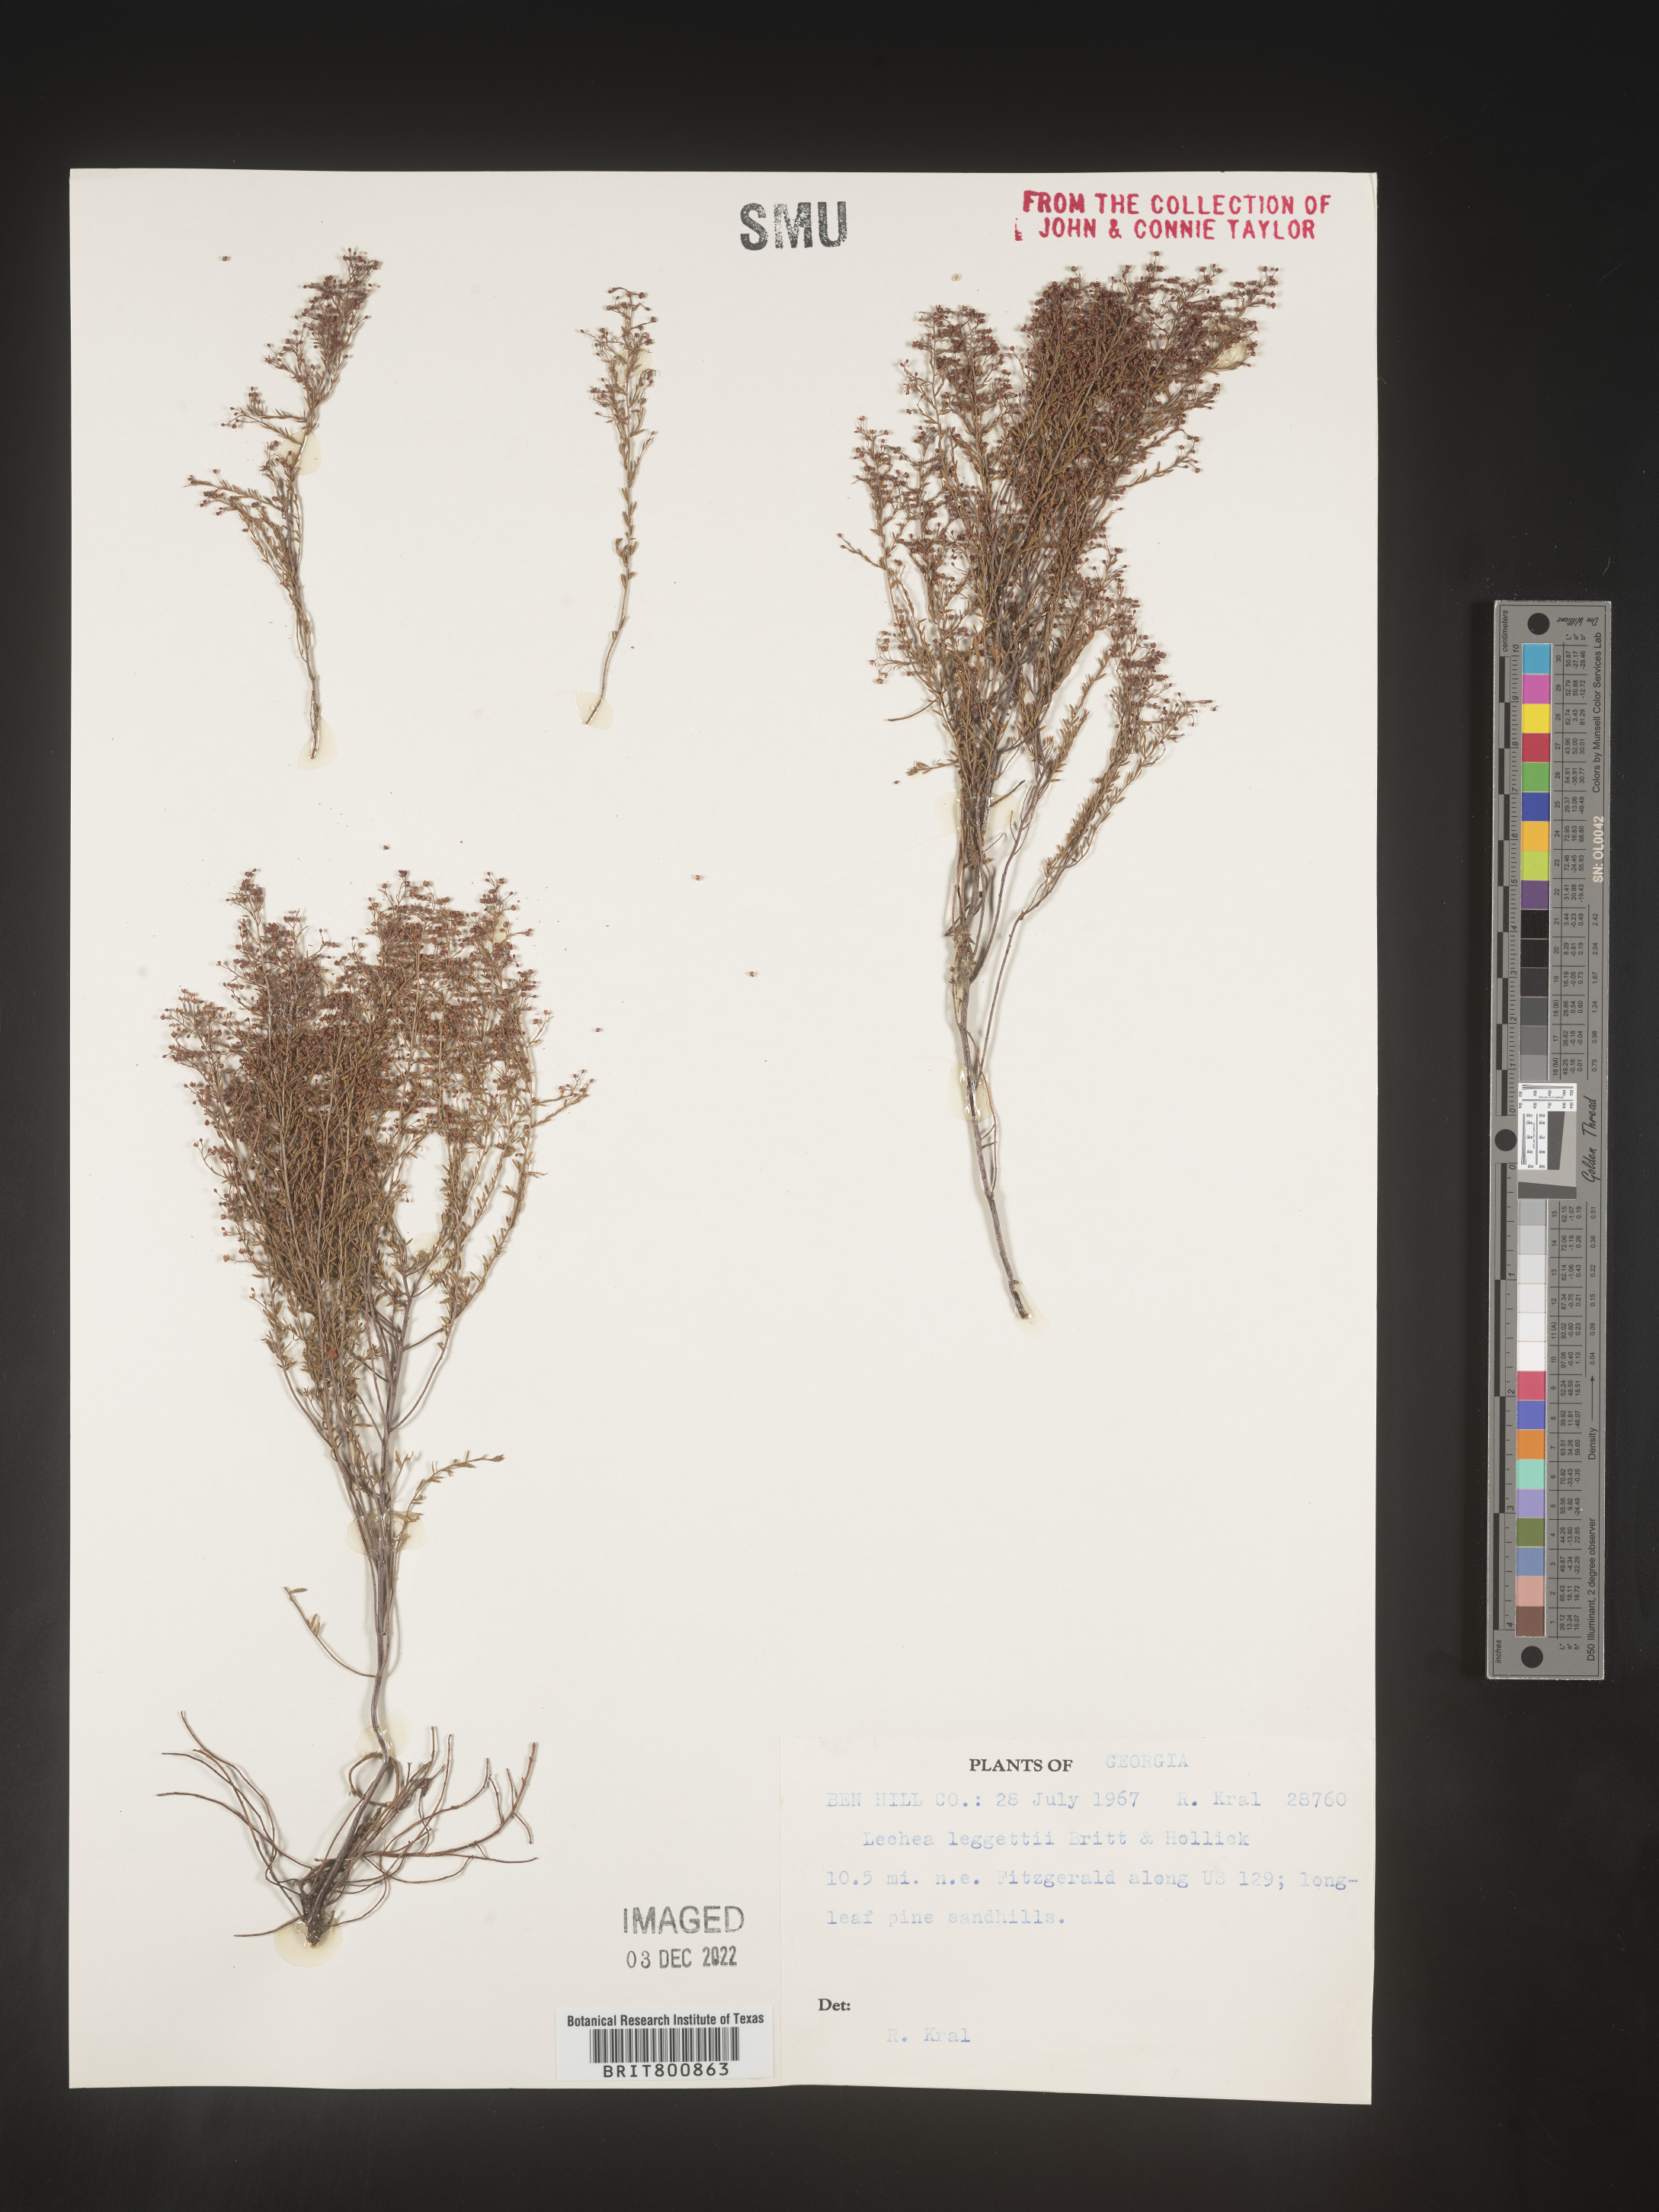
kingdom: Plantae
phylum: Tracheophyta
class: Magnoliopsida
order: Malvales
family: Cistaceae
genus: Lechea
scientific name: Lechea pulchella
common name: Leggett's pinweed
